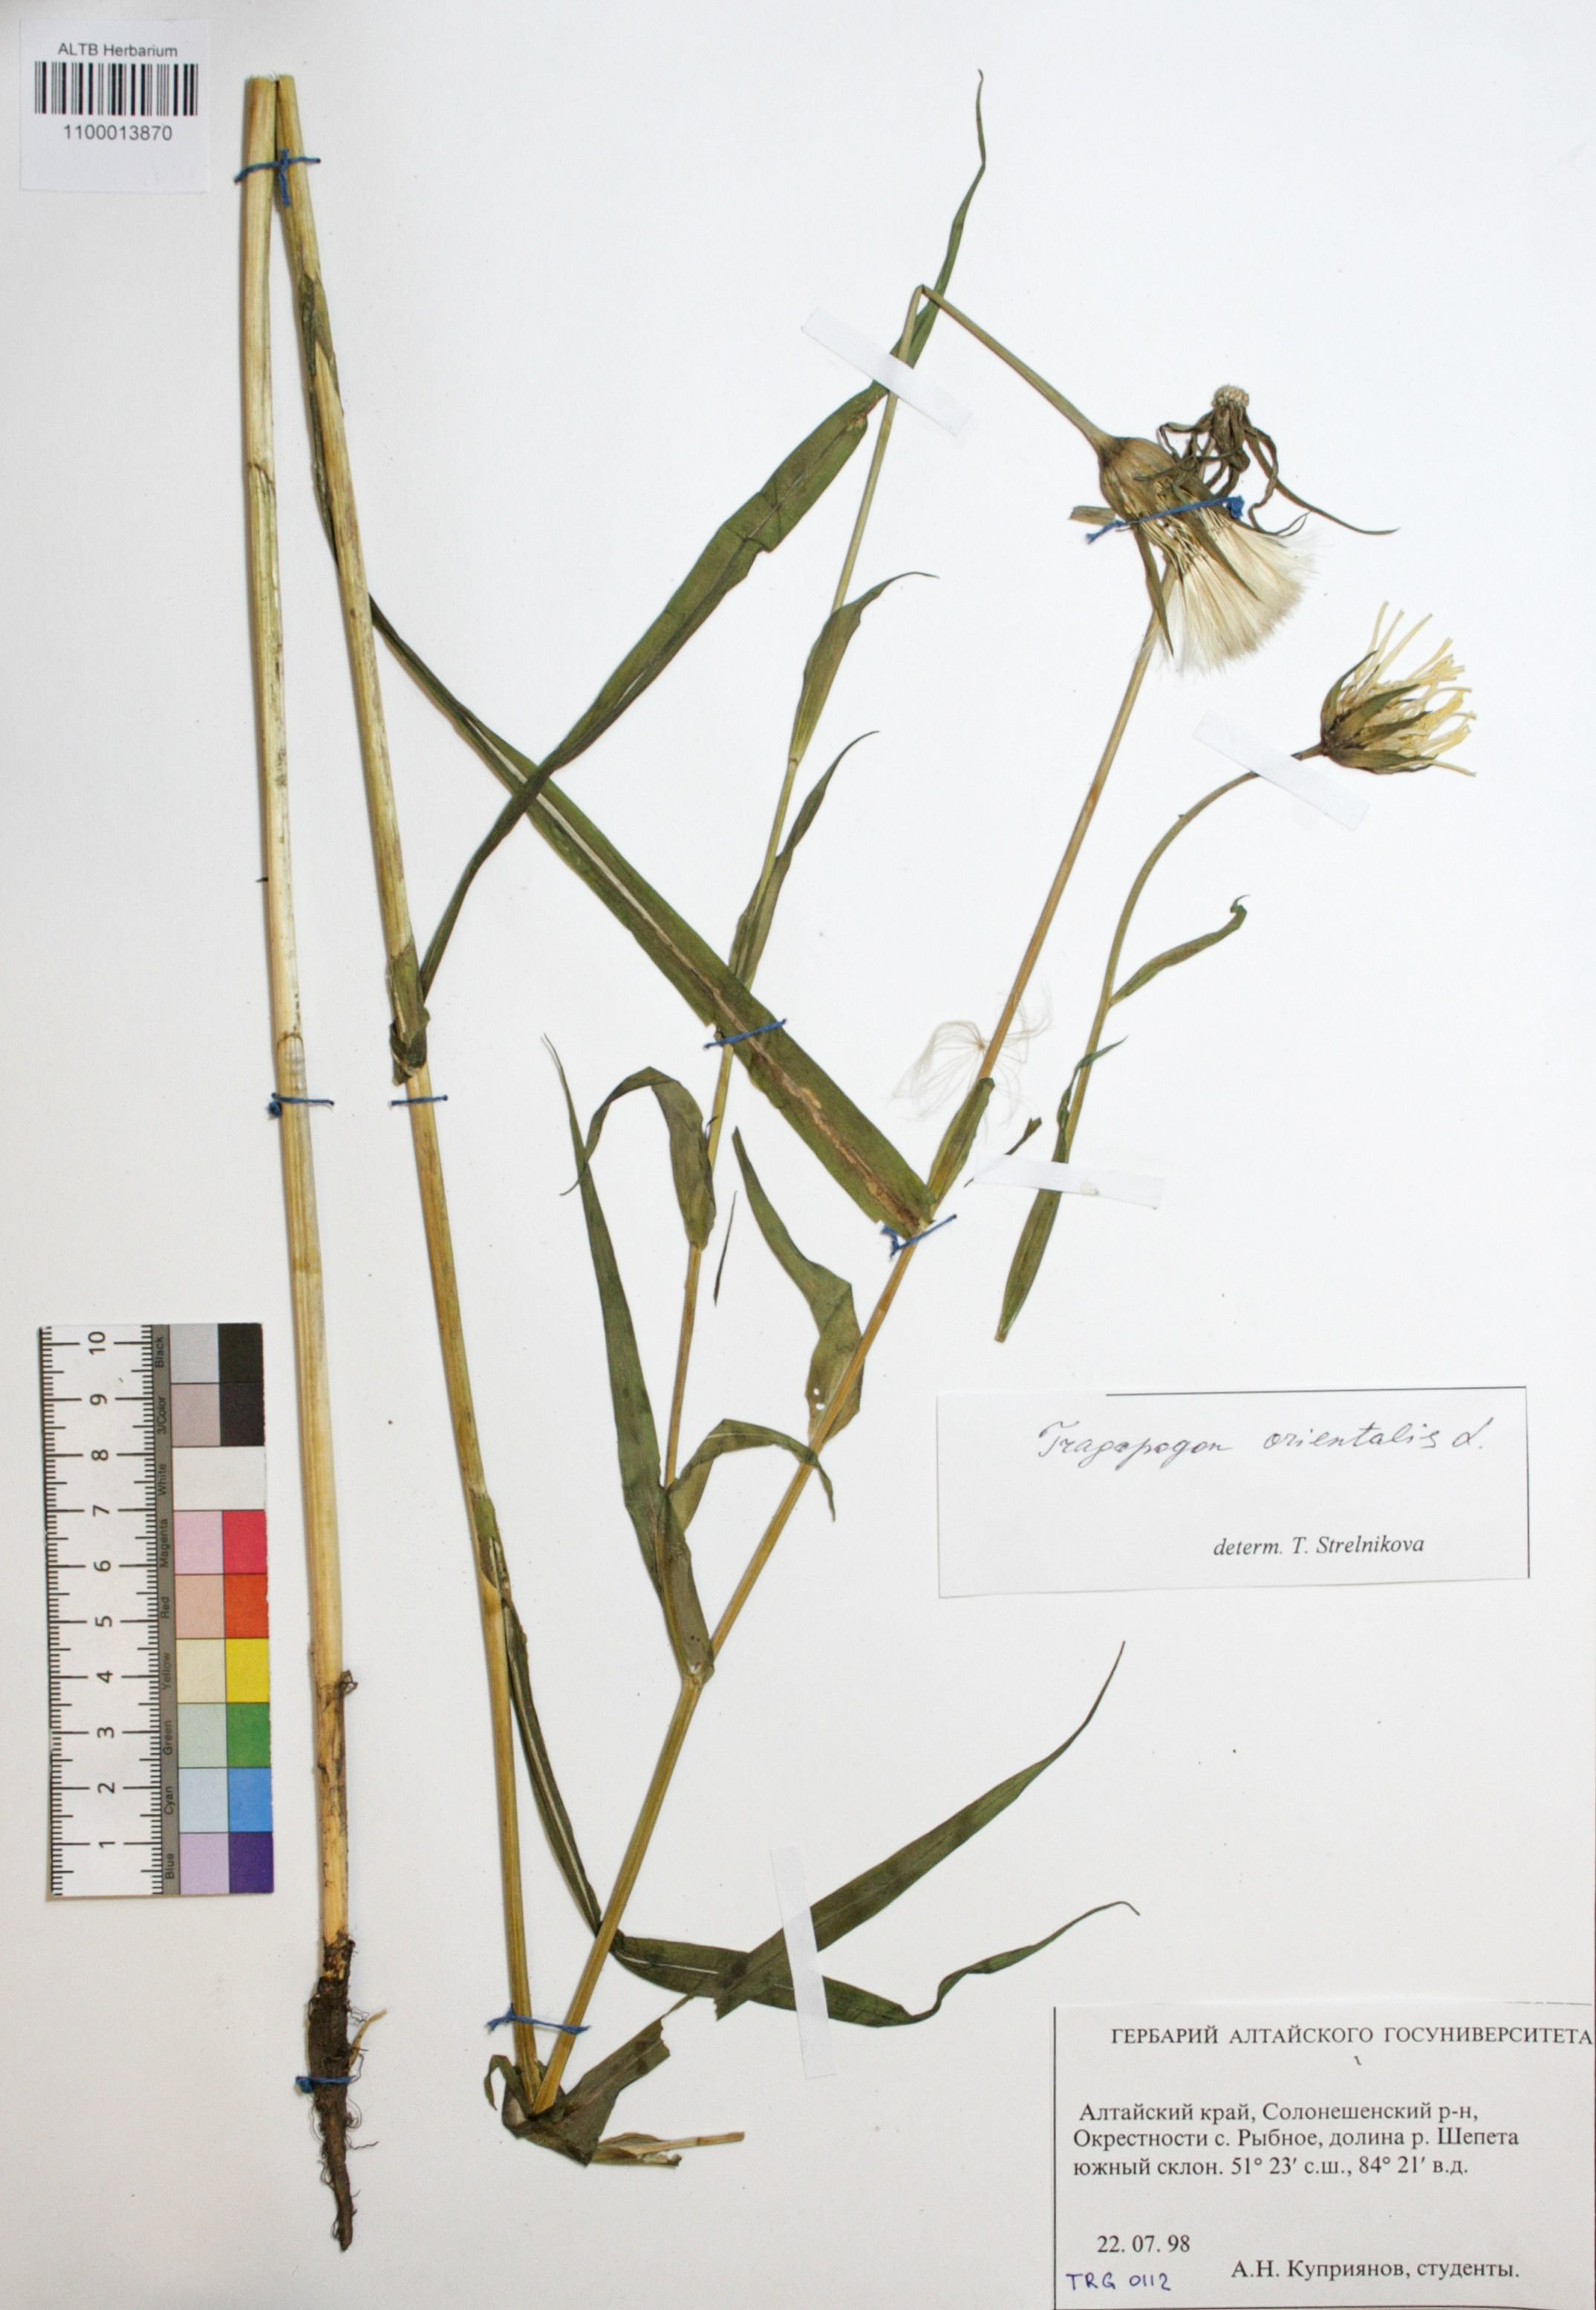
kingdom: Plantae
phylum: Tracheophyta
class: Magnoliopsida
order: Asterales
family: Asteraceae
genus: Tragopogon
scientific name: Tragopogon orientalis
